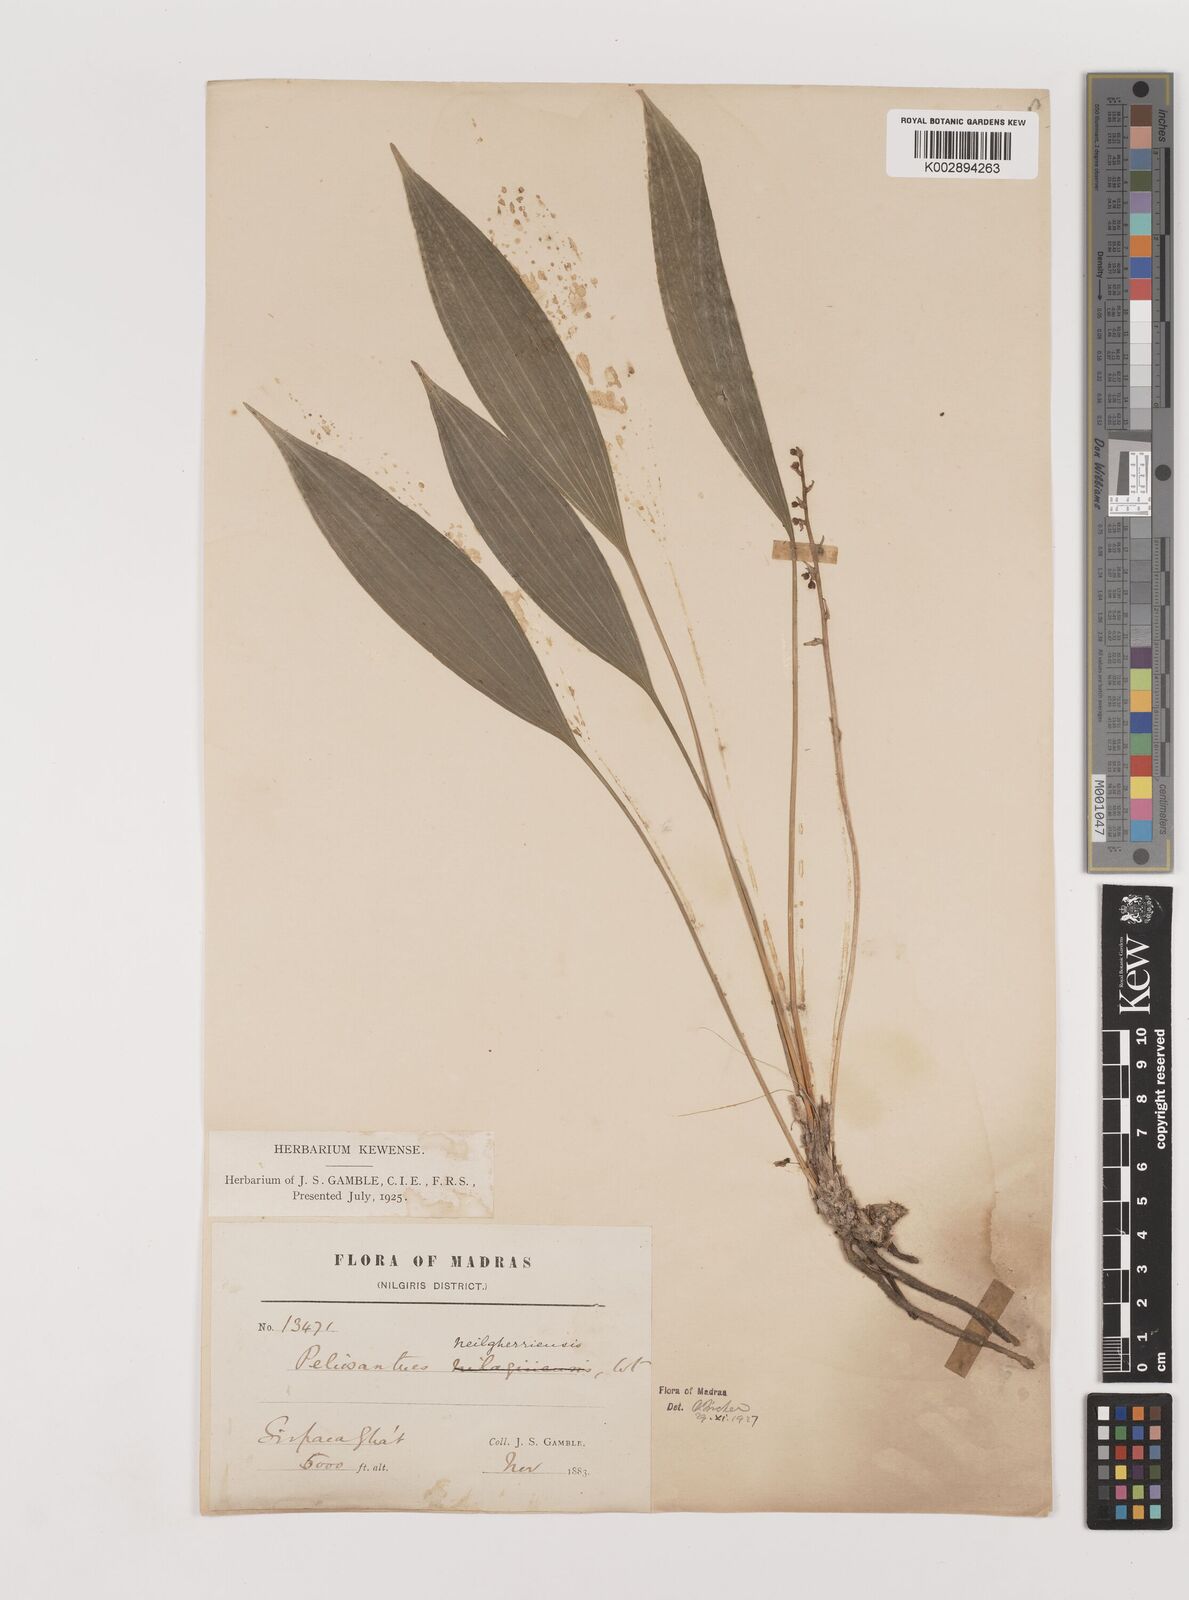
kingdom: Plantae
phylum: Tracheophyta
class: Liliopsida
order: Asparagales
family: Asparagaceae
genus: Peliosanthes
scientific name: Peliosanthes teta
